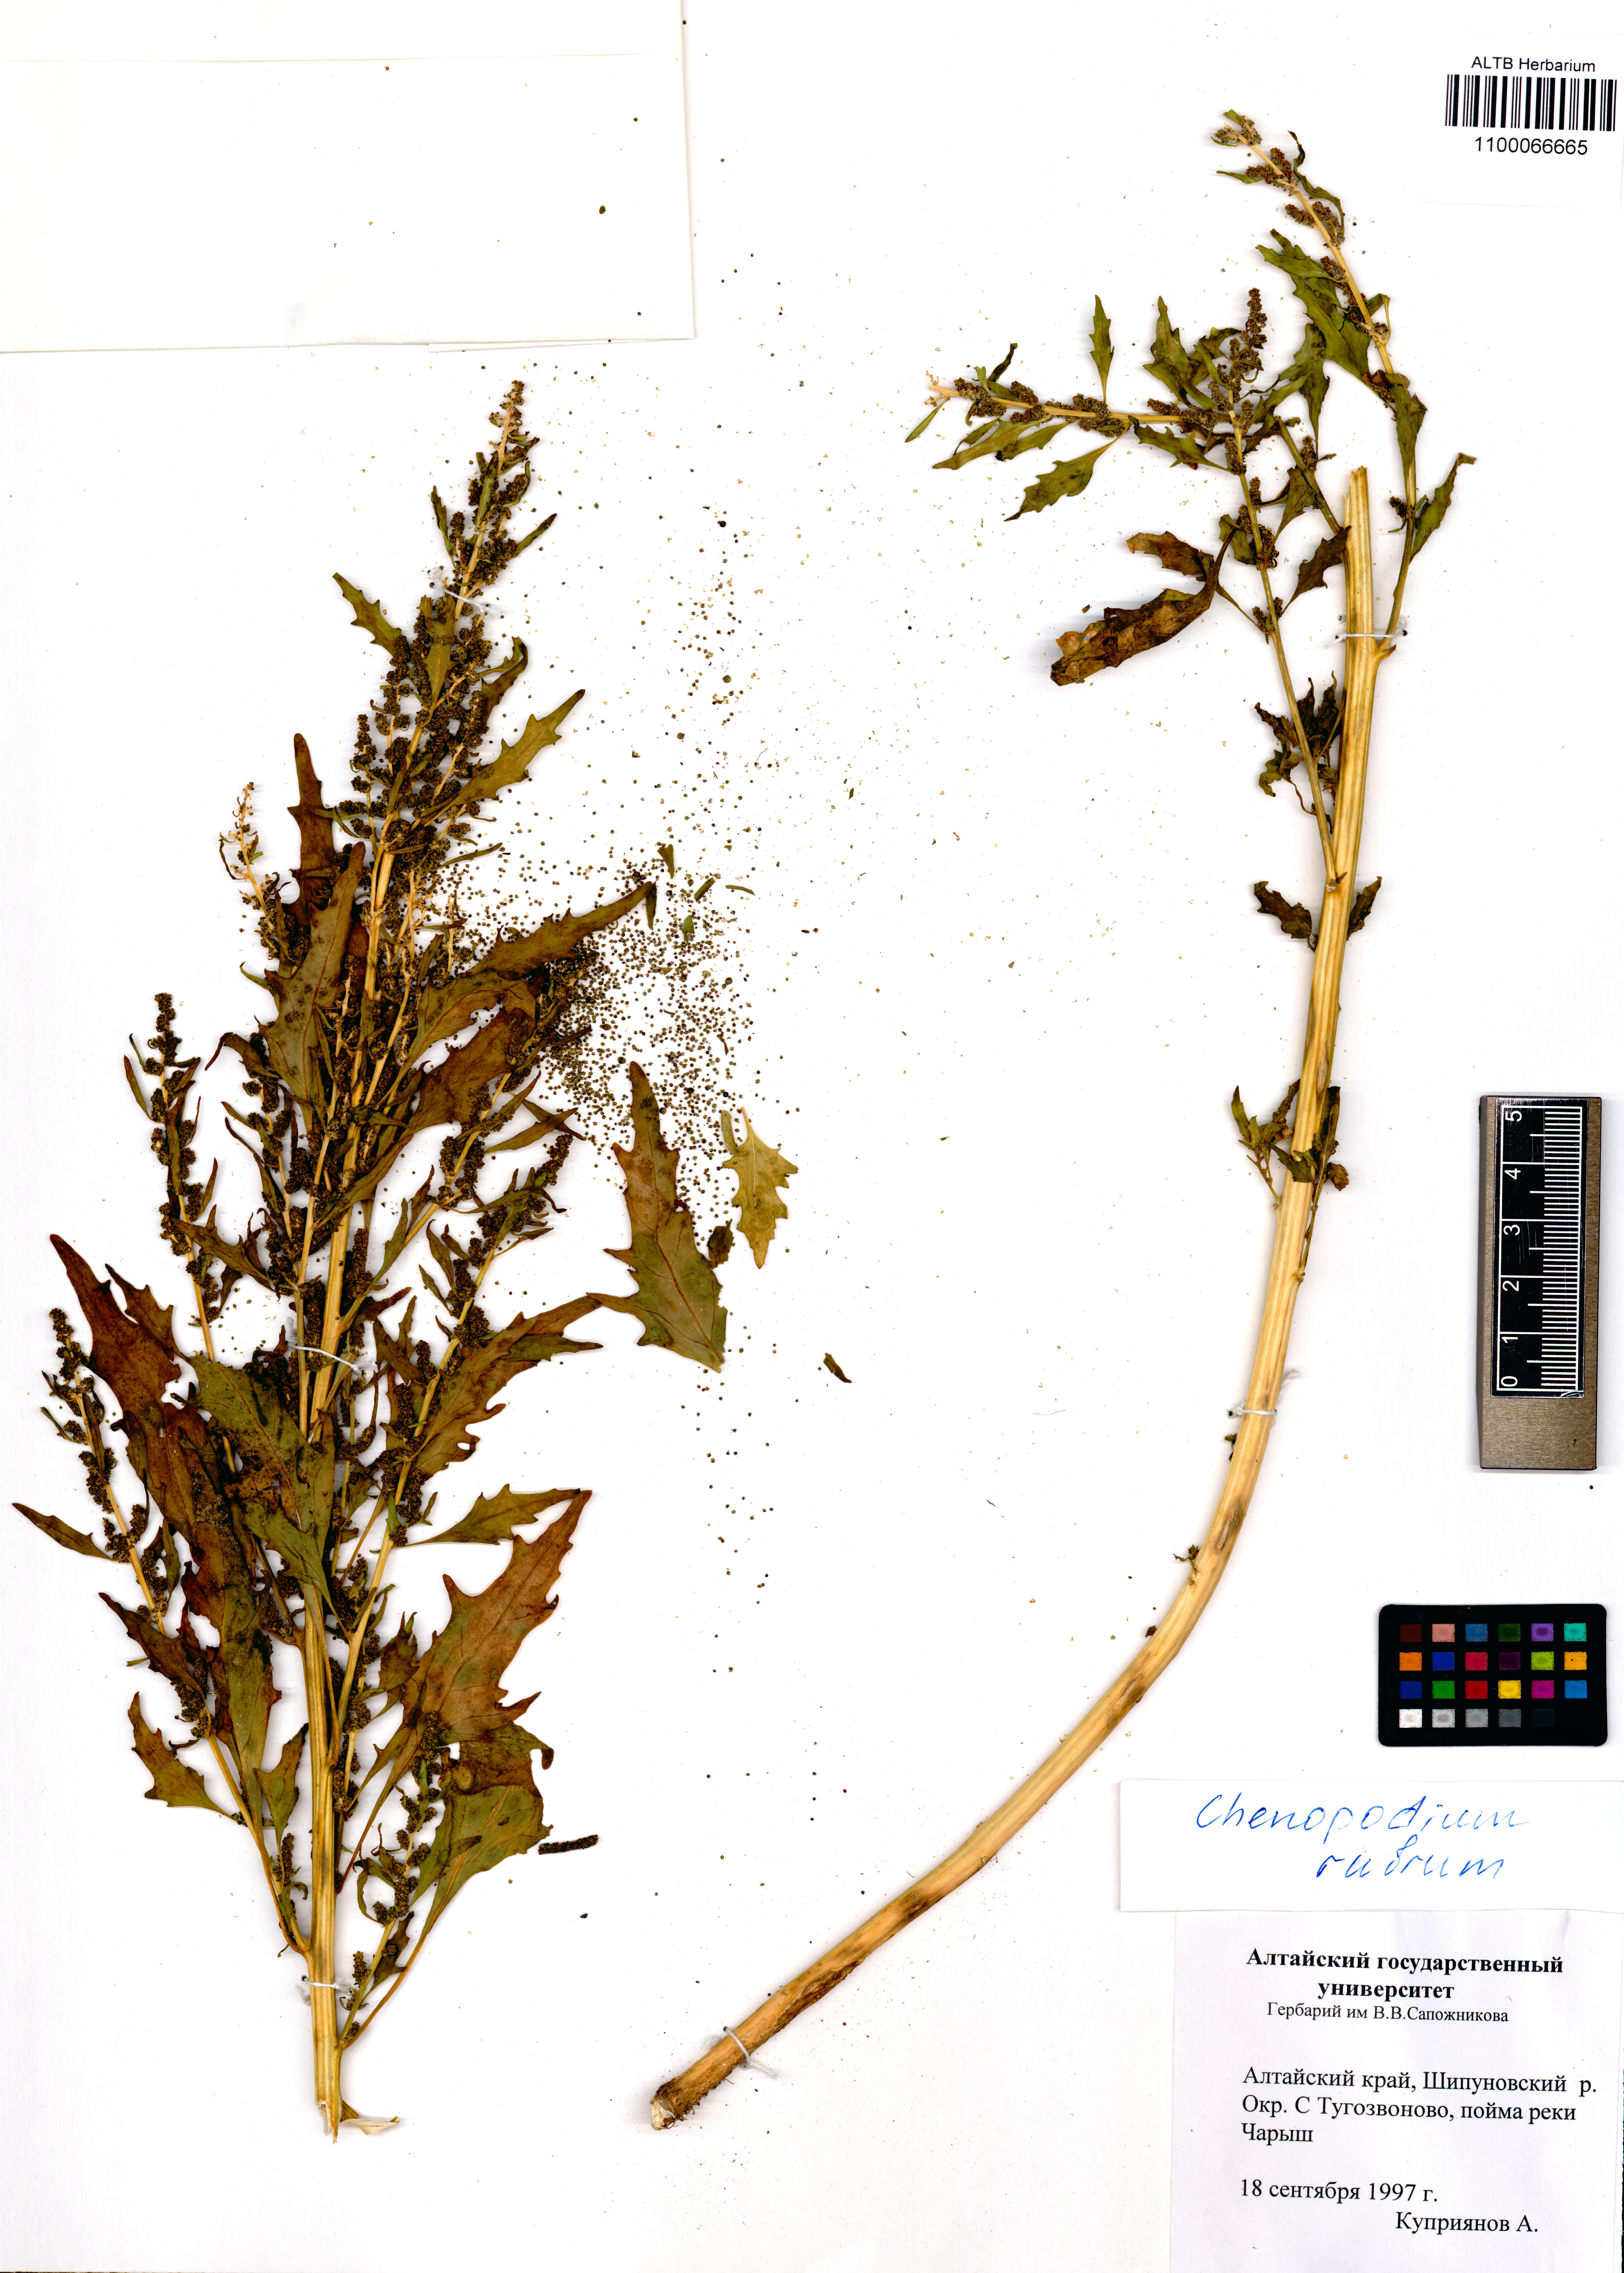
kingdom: Plantae
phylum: Tracheophyta
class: Magnoliopsida
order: Caryophyllales
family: Amaranthaceae
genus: Oxybasis
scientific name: Oxybasis rubra
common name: Red goosefoot
